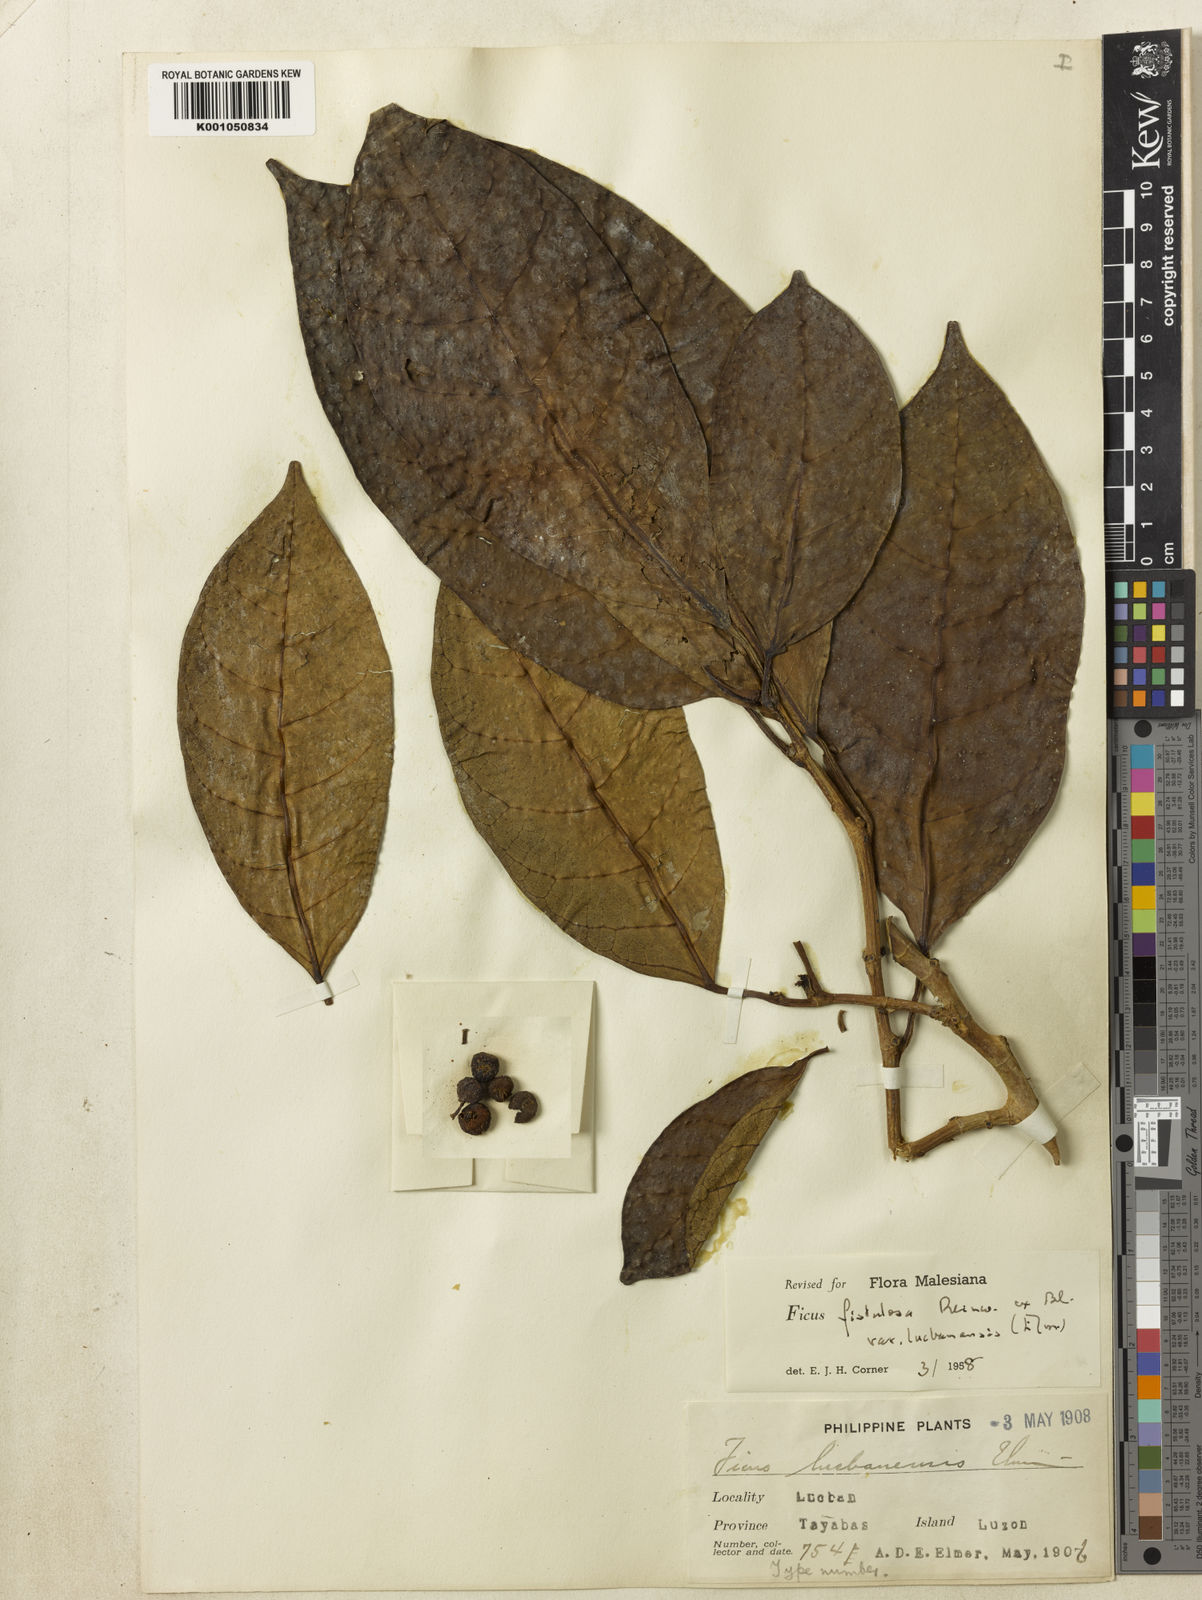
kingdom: Plantae
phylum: Tracheophyta
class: Magnoliopsida
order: Rosales
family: Moraceae
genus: Ficus
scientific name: Ficus septica
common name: Septic fig
